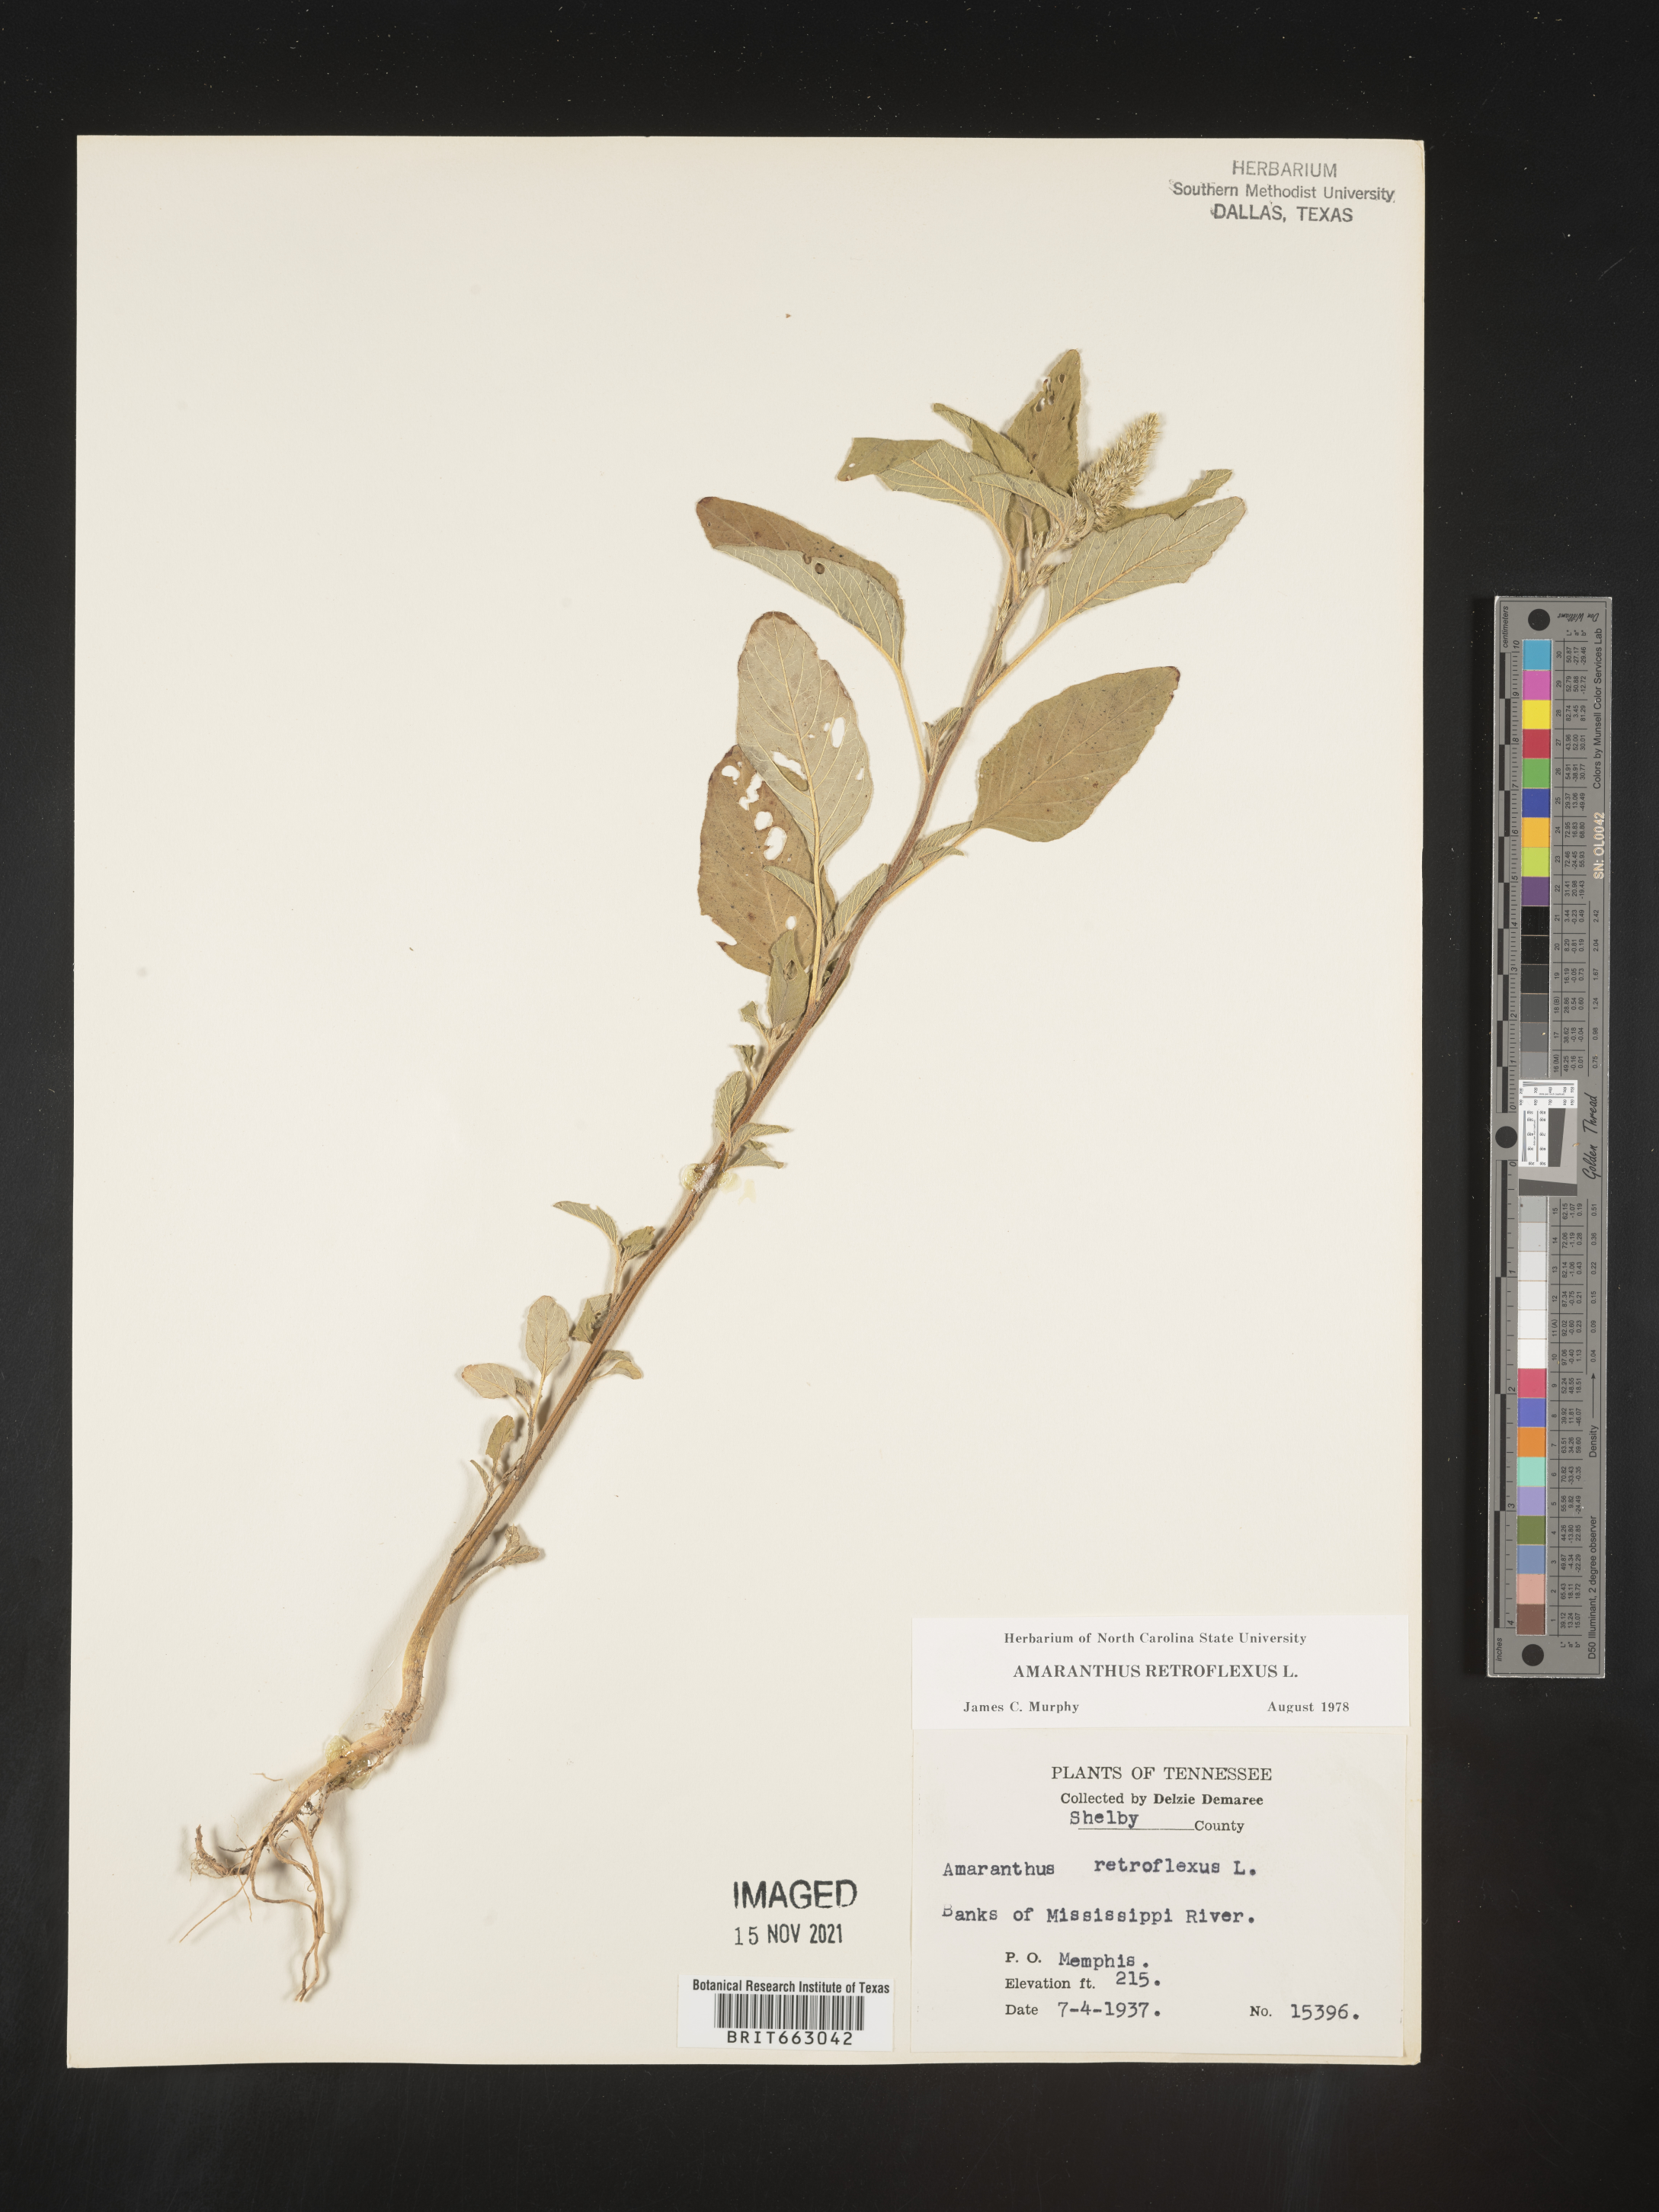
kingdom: Plantae
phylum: Tracheophyta
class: Magnoliopsida
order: Caryophyllales
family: Amaranthaceae
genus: Amaranthus
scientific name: Amaranthus retroflexus
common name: Redroot amaranth
